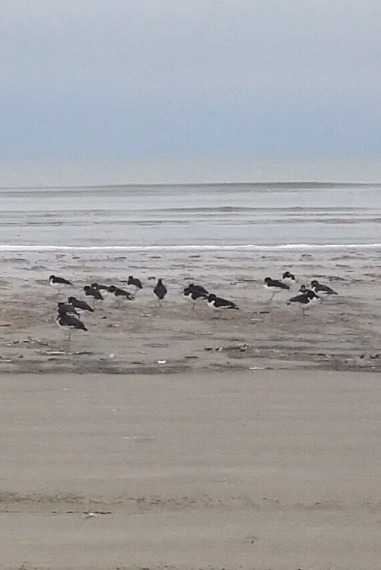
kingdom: Animalia
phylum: Chordata
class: Aves
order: Charadriiformes
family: Haematopodidae
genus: Haematopus
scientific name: Haematopus ostralegus
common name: Strandskade
